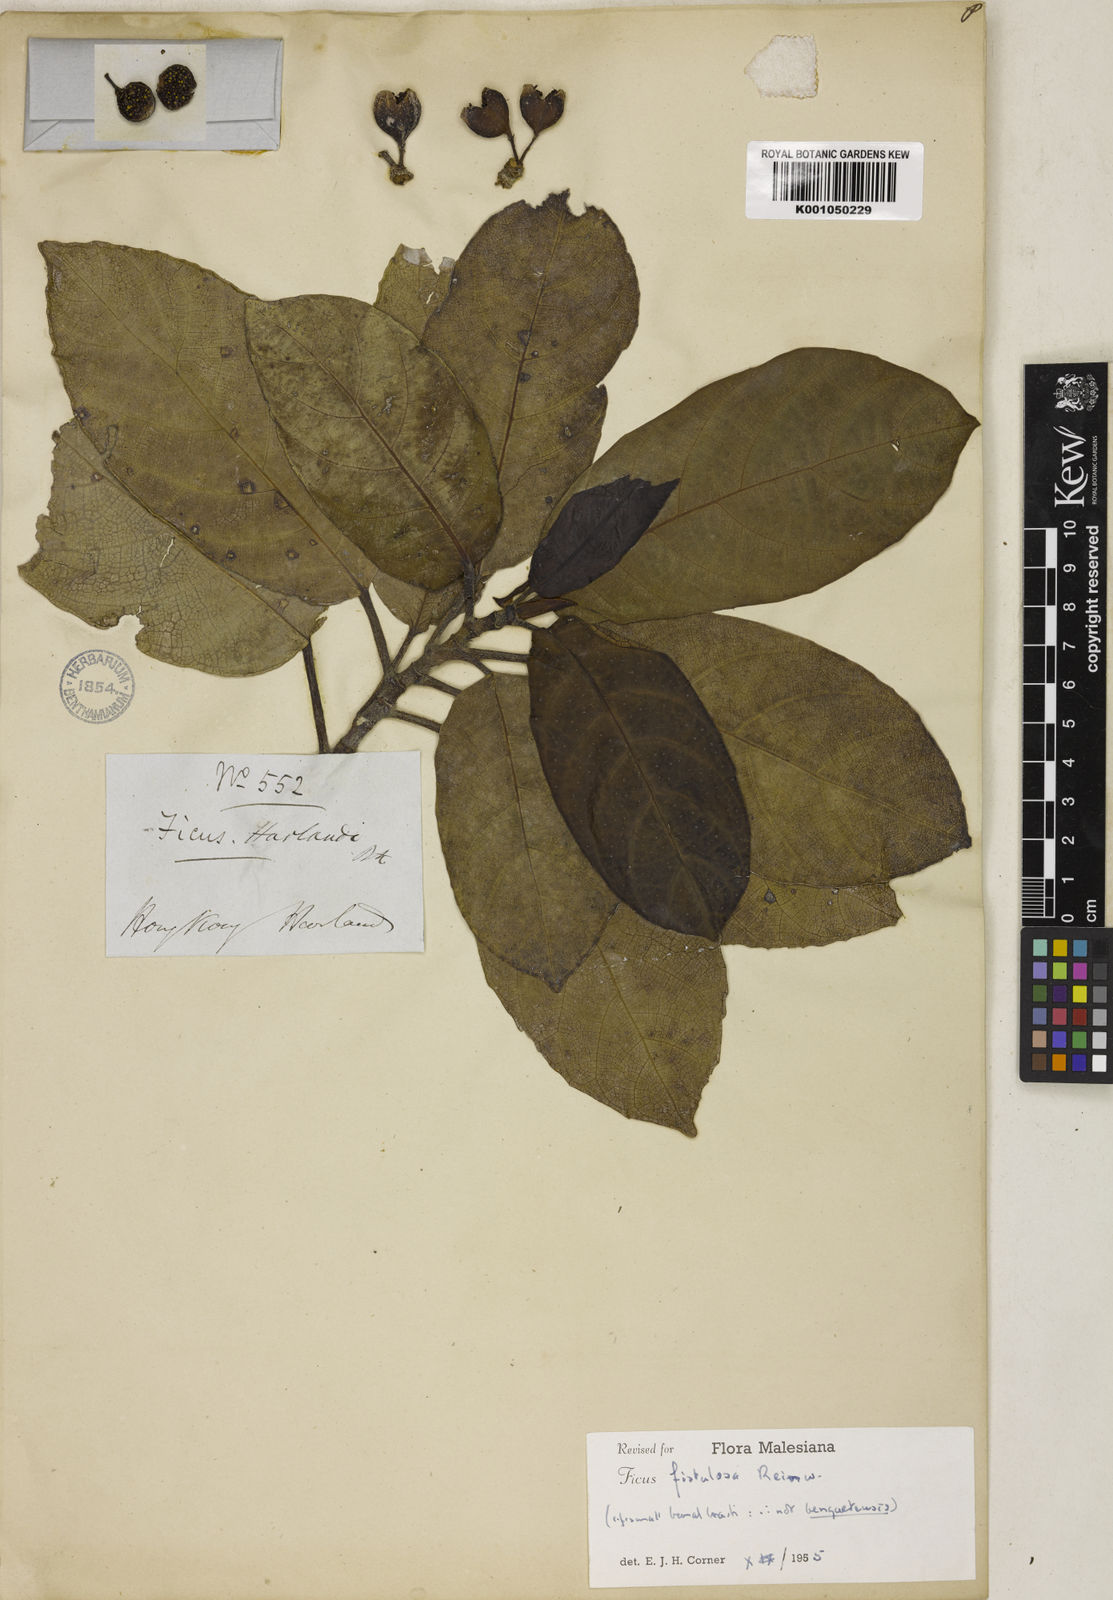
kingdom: Plantae
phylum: Tracheophyta
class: Magnoliopsida
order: Rosales
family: Moraceae
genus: Ficus
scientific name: Ficus fistulosa
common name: Figs
